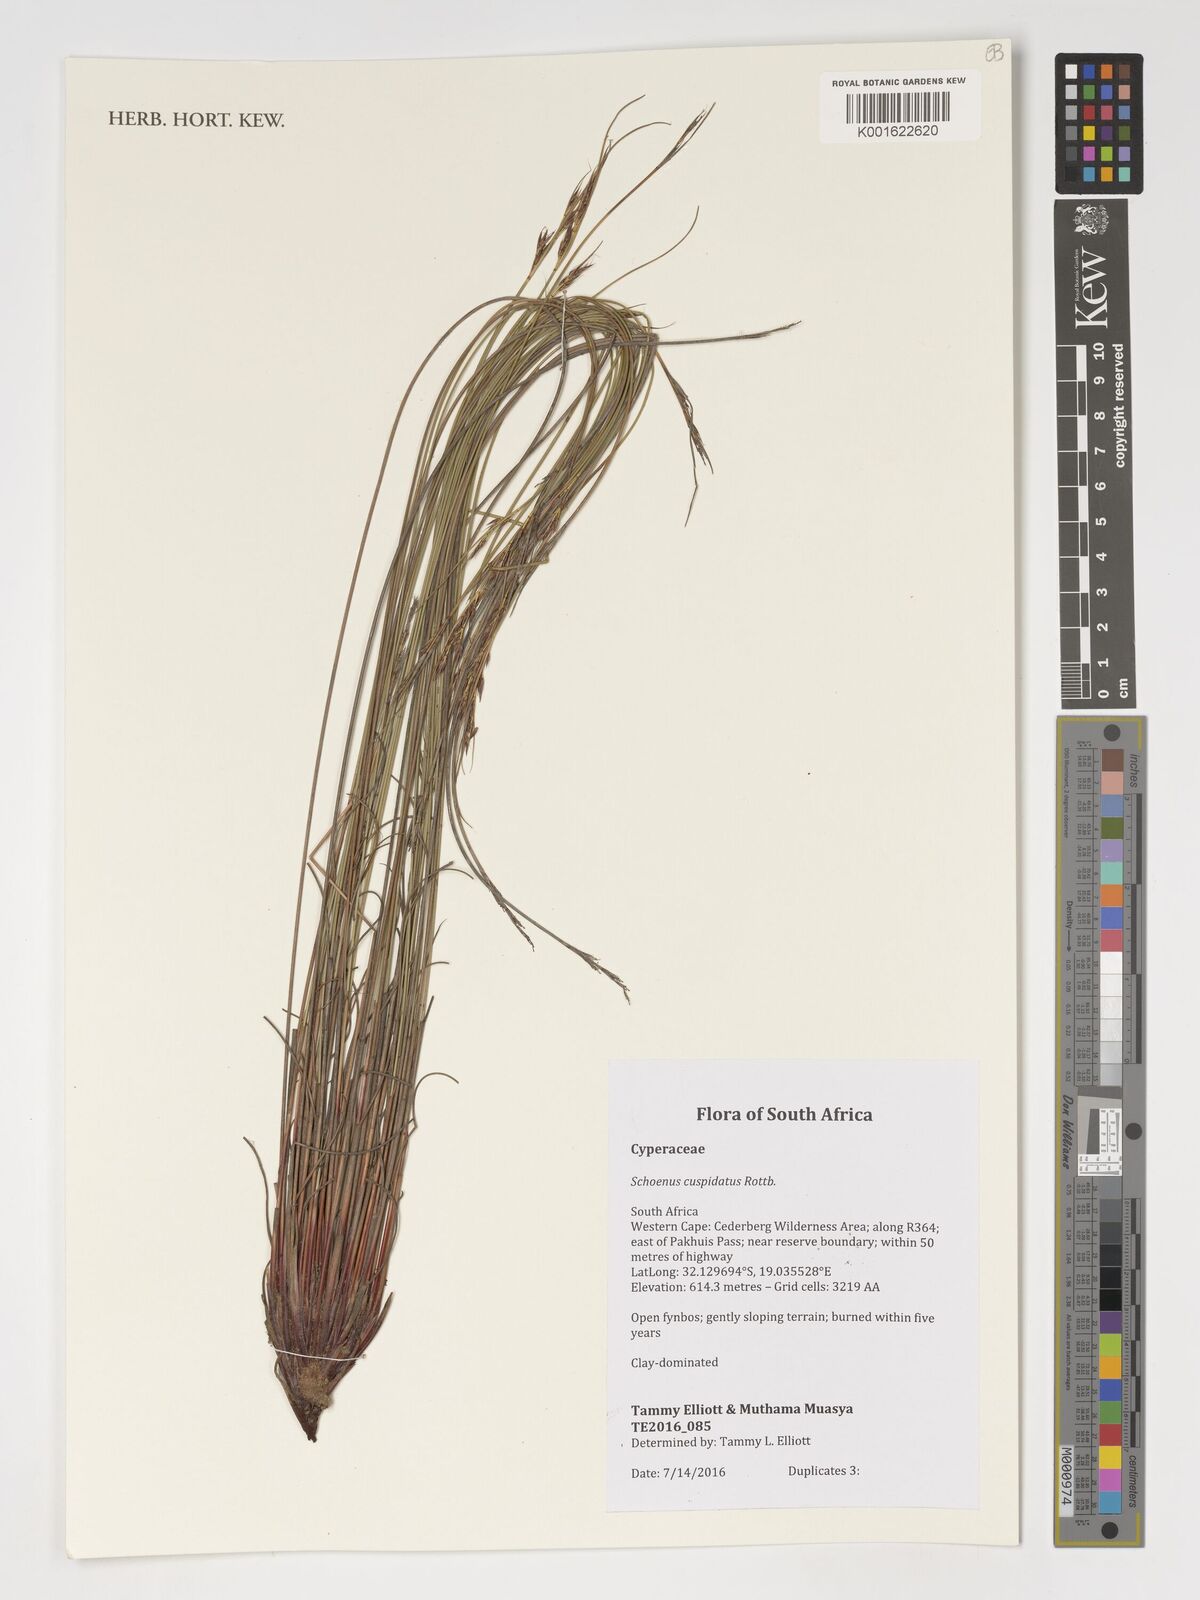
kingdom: Plantae
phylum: Tracheophyta
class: Liliopsida
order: Poales
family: Cyperaceae
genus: Schoenus
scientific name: Schoenus cuspidatus
